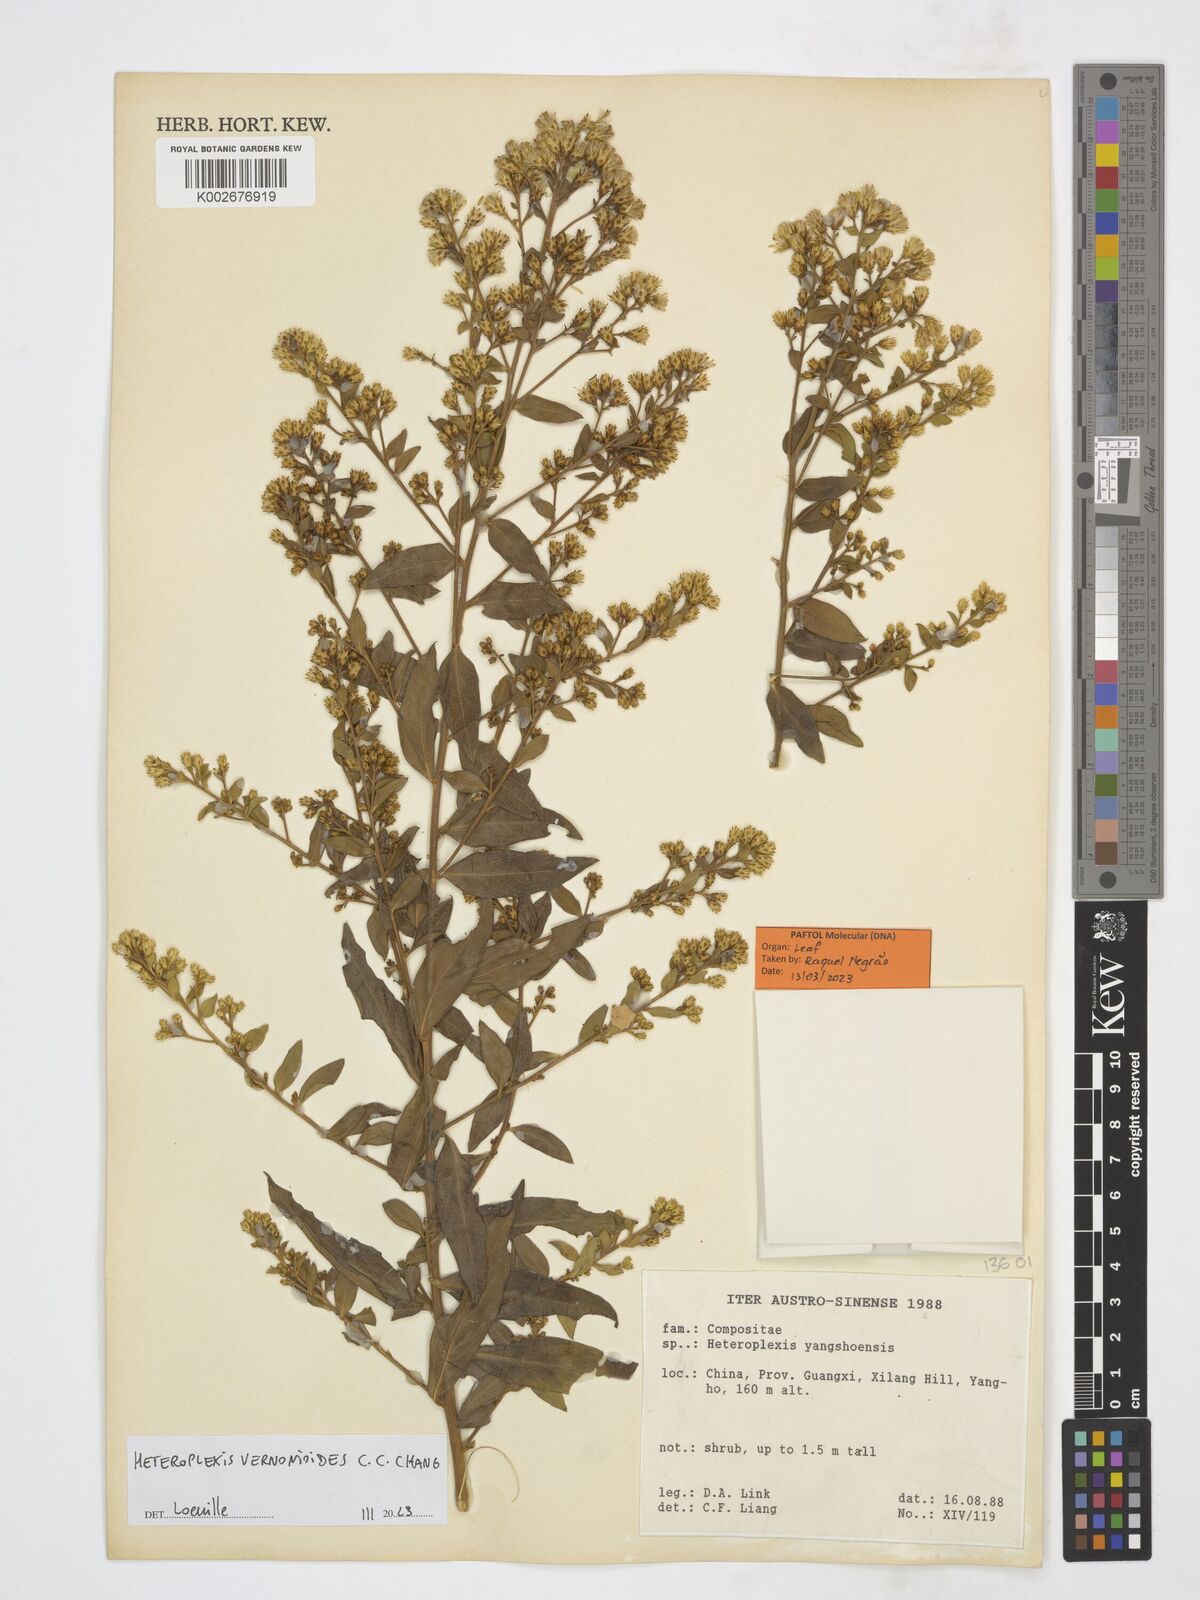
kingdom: Plantae
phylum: Tracheophyta
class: Magnoliopsida
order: Asterales
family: Asteraceae
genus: Heteroplexis
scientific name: Heteroplexis vernonioides
